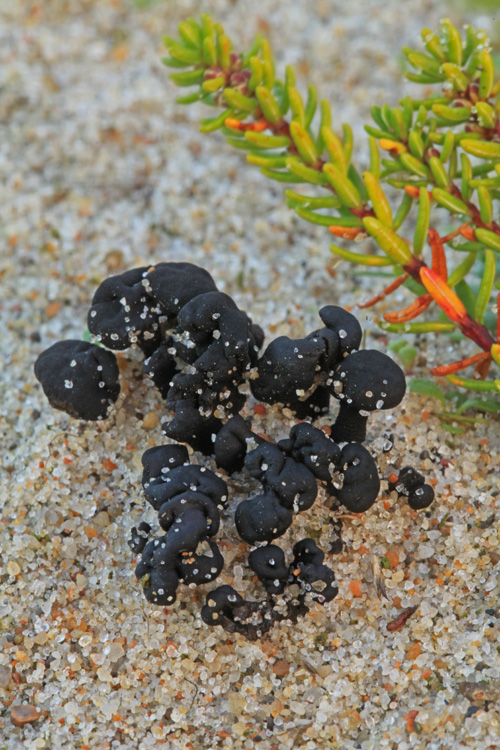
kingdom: Fungi
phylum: Ascomycota
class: Geoglossomycetes
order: Geoglossales
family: Geoglossaceae
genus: Sabuloglossum
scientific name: Sabuloglossum arenarium
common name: klit-jordtunge
